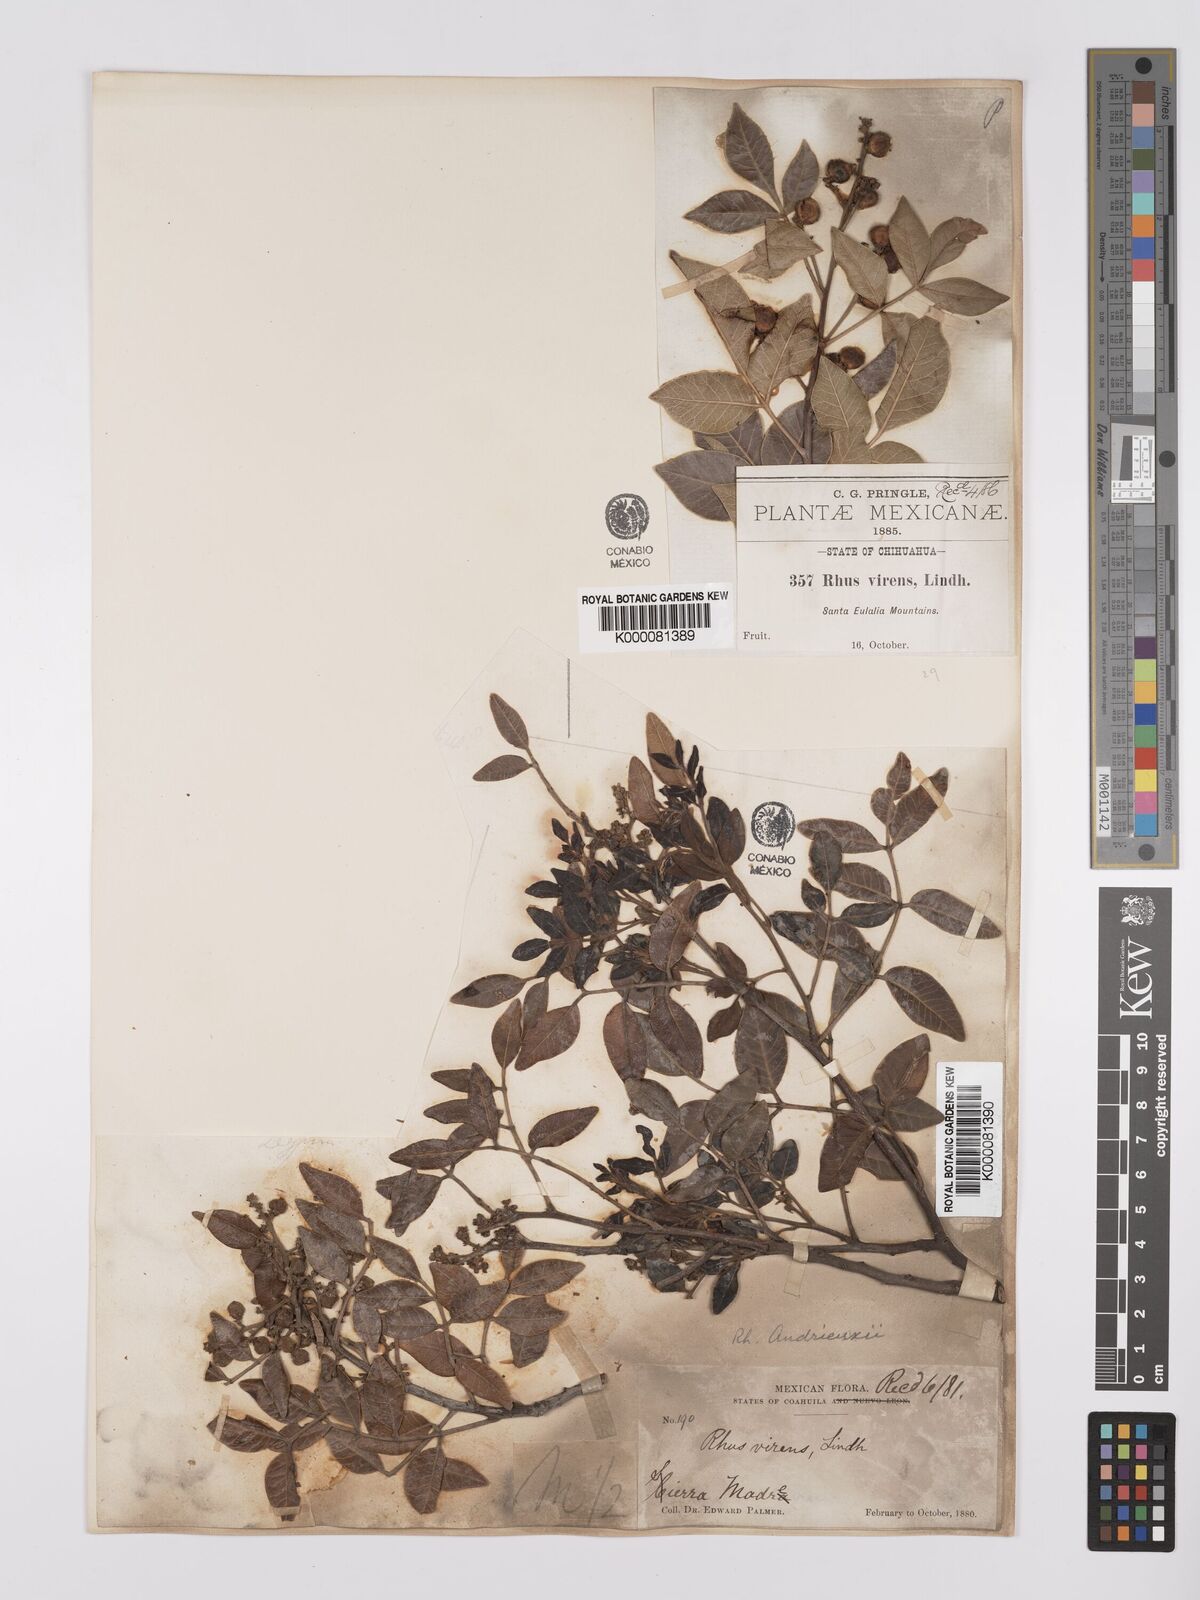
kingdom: Plantae
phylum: Tracheophyta
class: Magnoliopsida
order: Sapindales
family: Anacardiaceae
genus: Rhus
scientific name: Rhus virens
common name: Evergreen sumac
